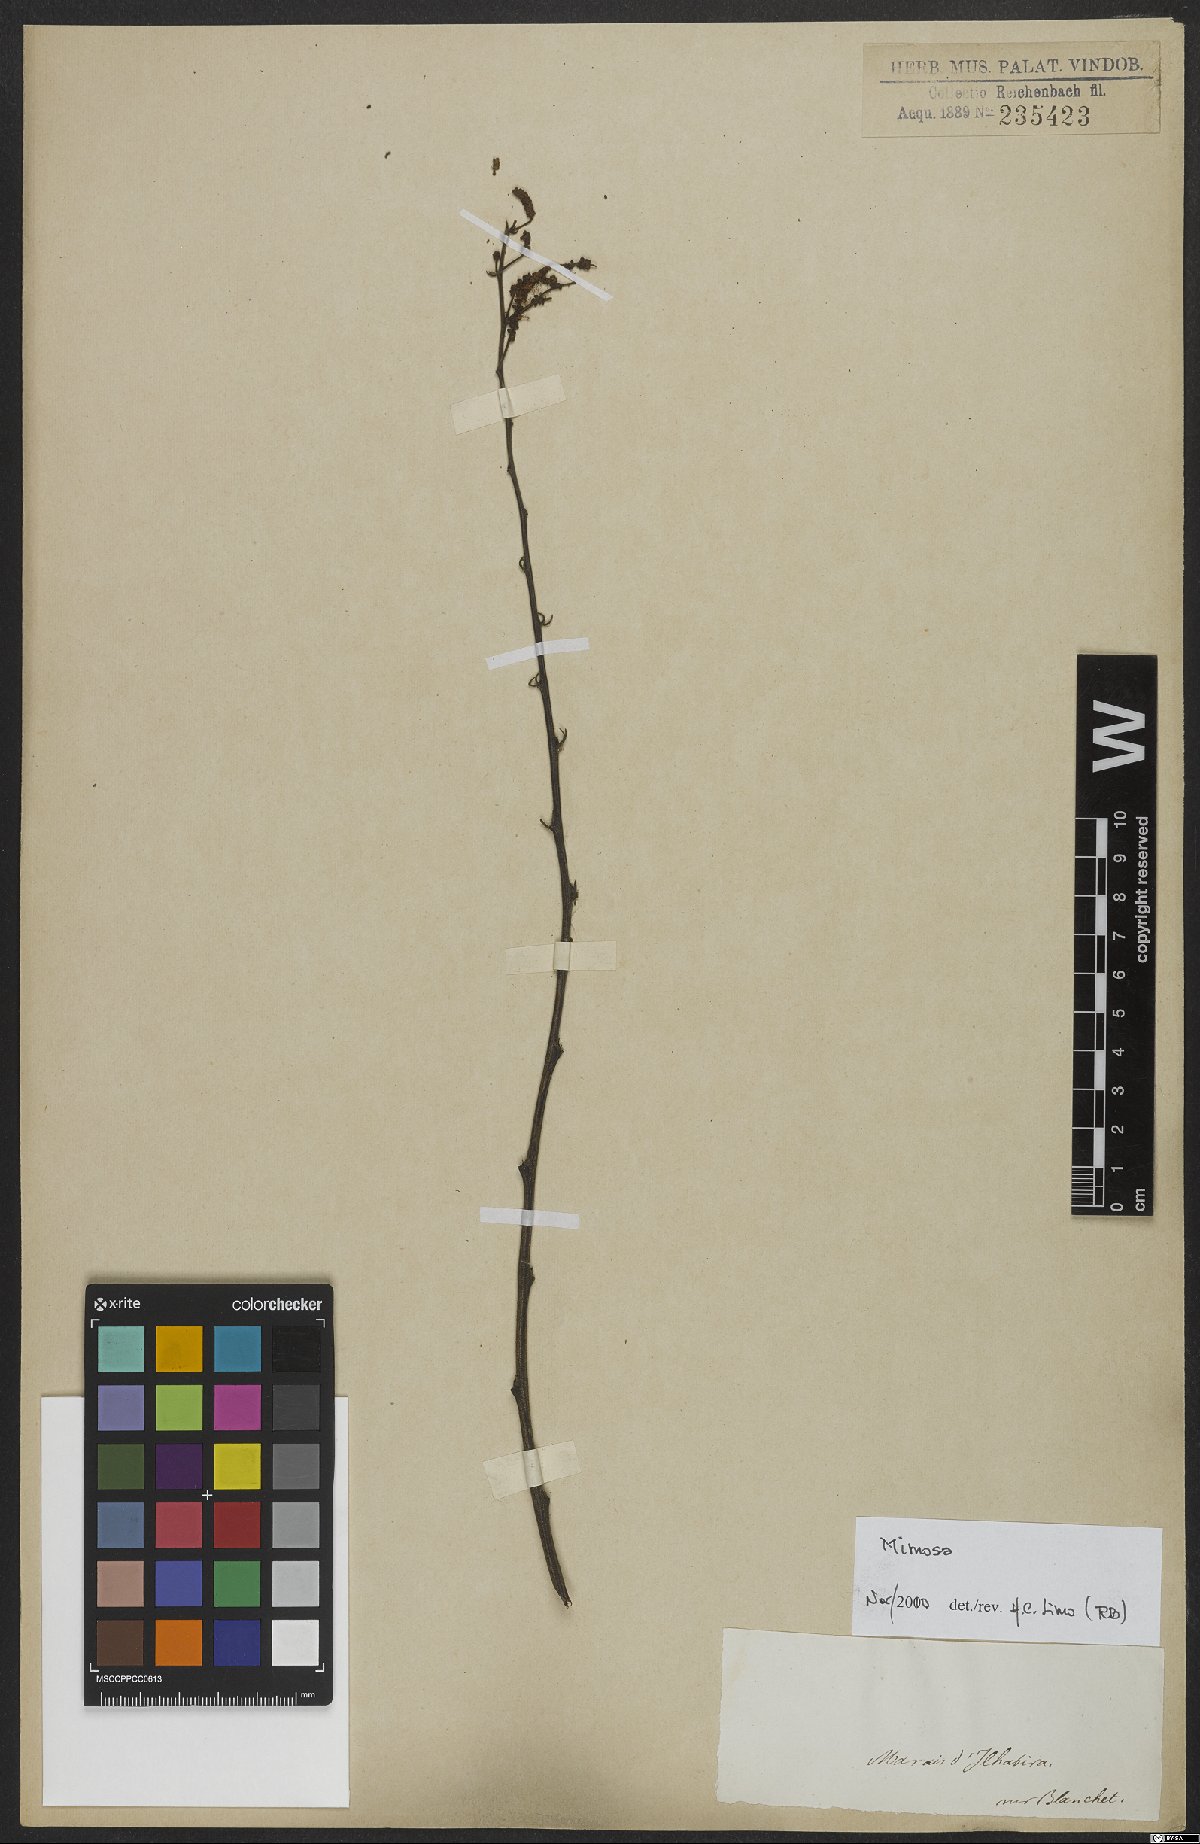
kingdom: Plantae
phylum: Tracheophyta
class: Magnoliopsida
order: Fabales
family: Fabaceae
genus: Mimosa
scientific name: Mimosa
